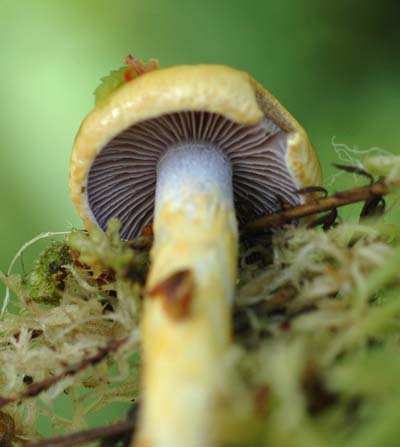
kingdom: Fungi
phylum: Basidiomycota
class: Agaricomycetes
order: Agaricales
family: Cortinariaceae
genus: Cortinarius
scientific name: Cortinarius delibutus
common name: gul slørhat
